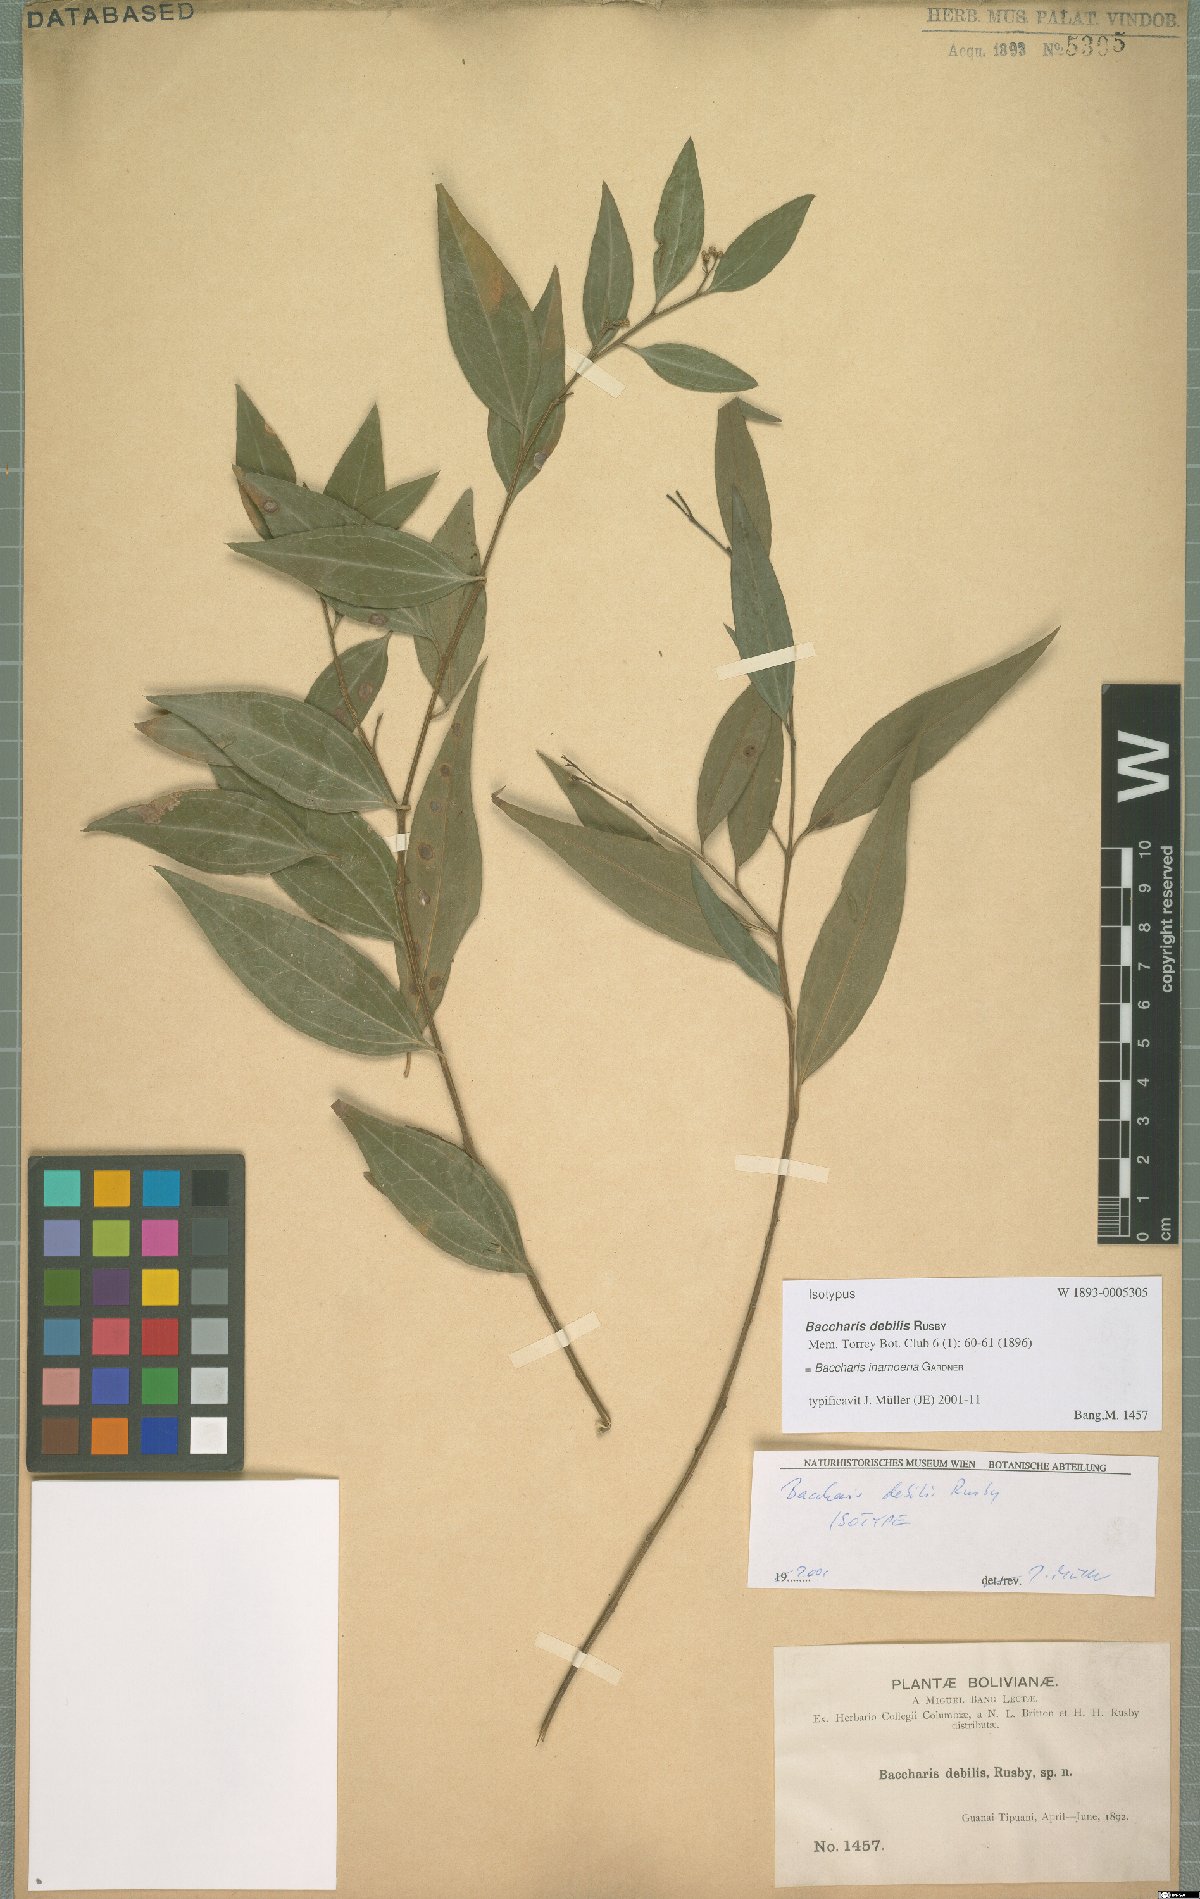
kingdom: Plantae
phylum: Tracheophyta
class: Magnoliopsida
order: Asterales
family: Asteraceae
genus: Baccharis
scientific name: Baccharis rufidula
